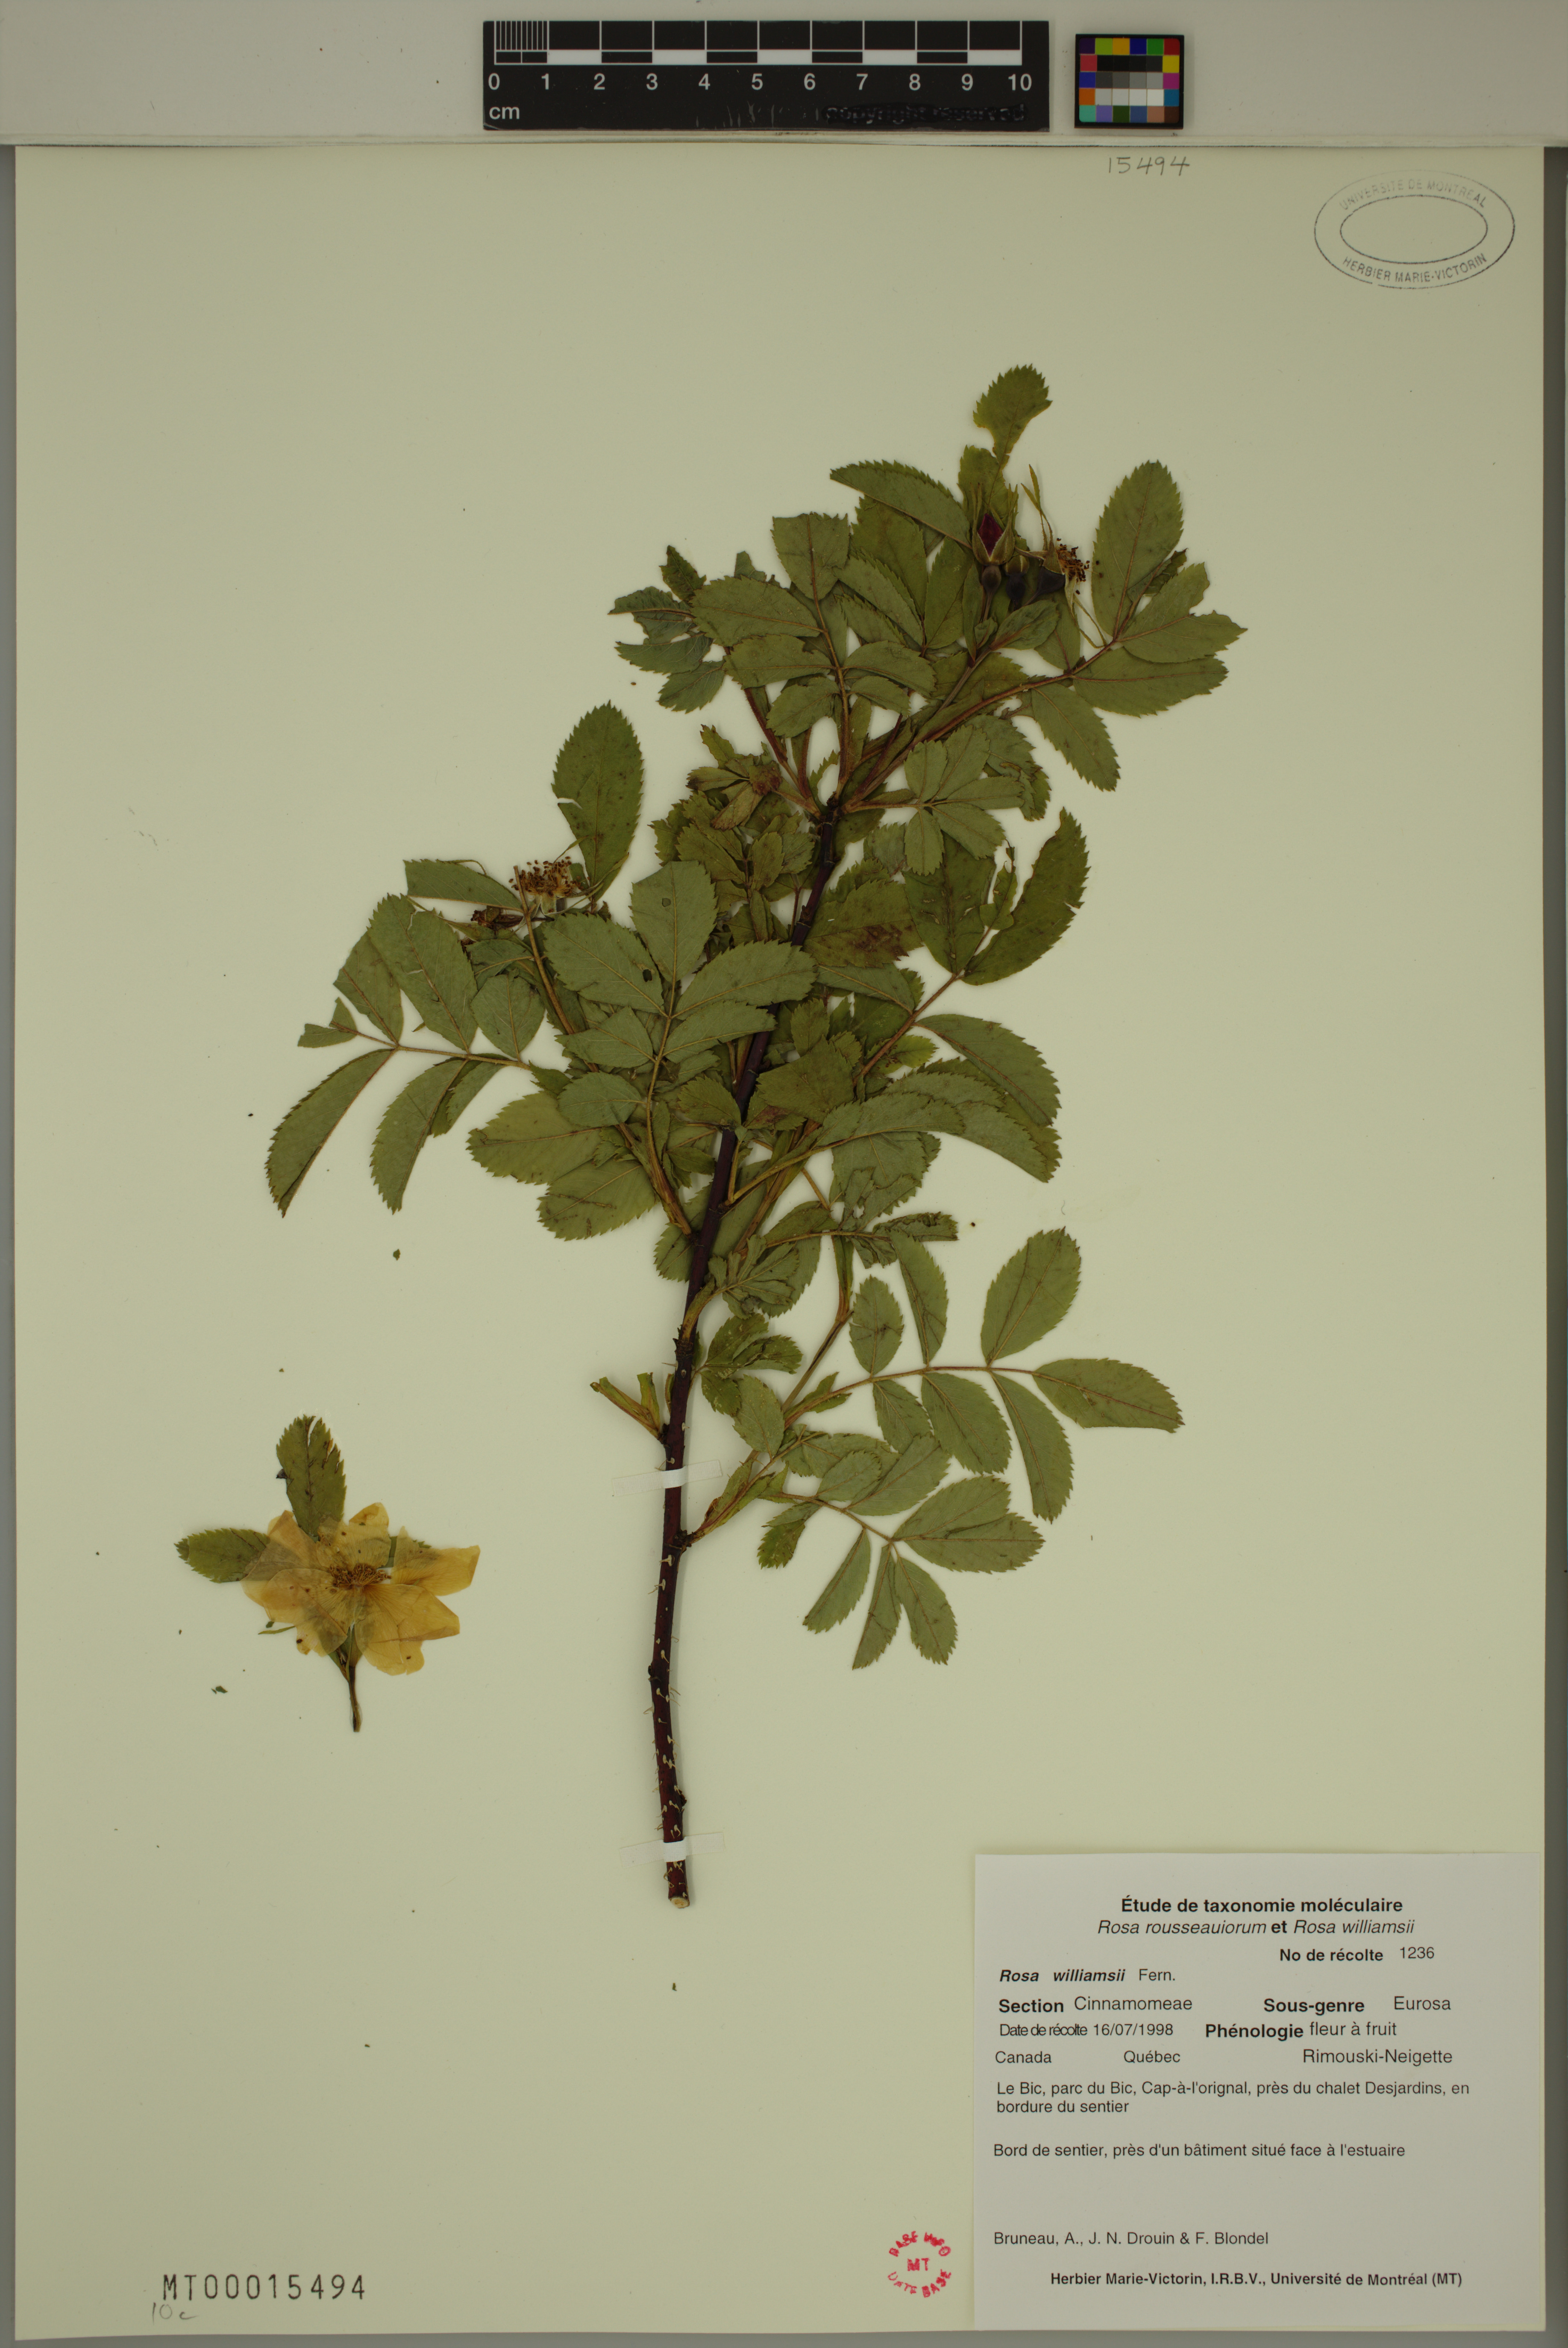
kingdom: Plantae
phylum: Tracheophyta
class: Magnoliopsida
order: Rosales
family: Rosaceae
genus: Rosa
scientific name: Rosa blanda
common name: Smooth rose
